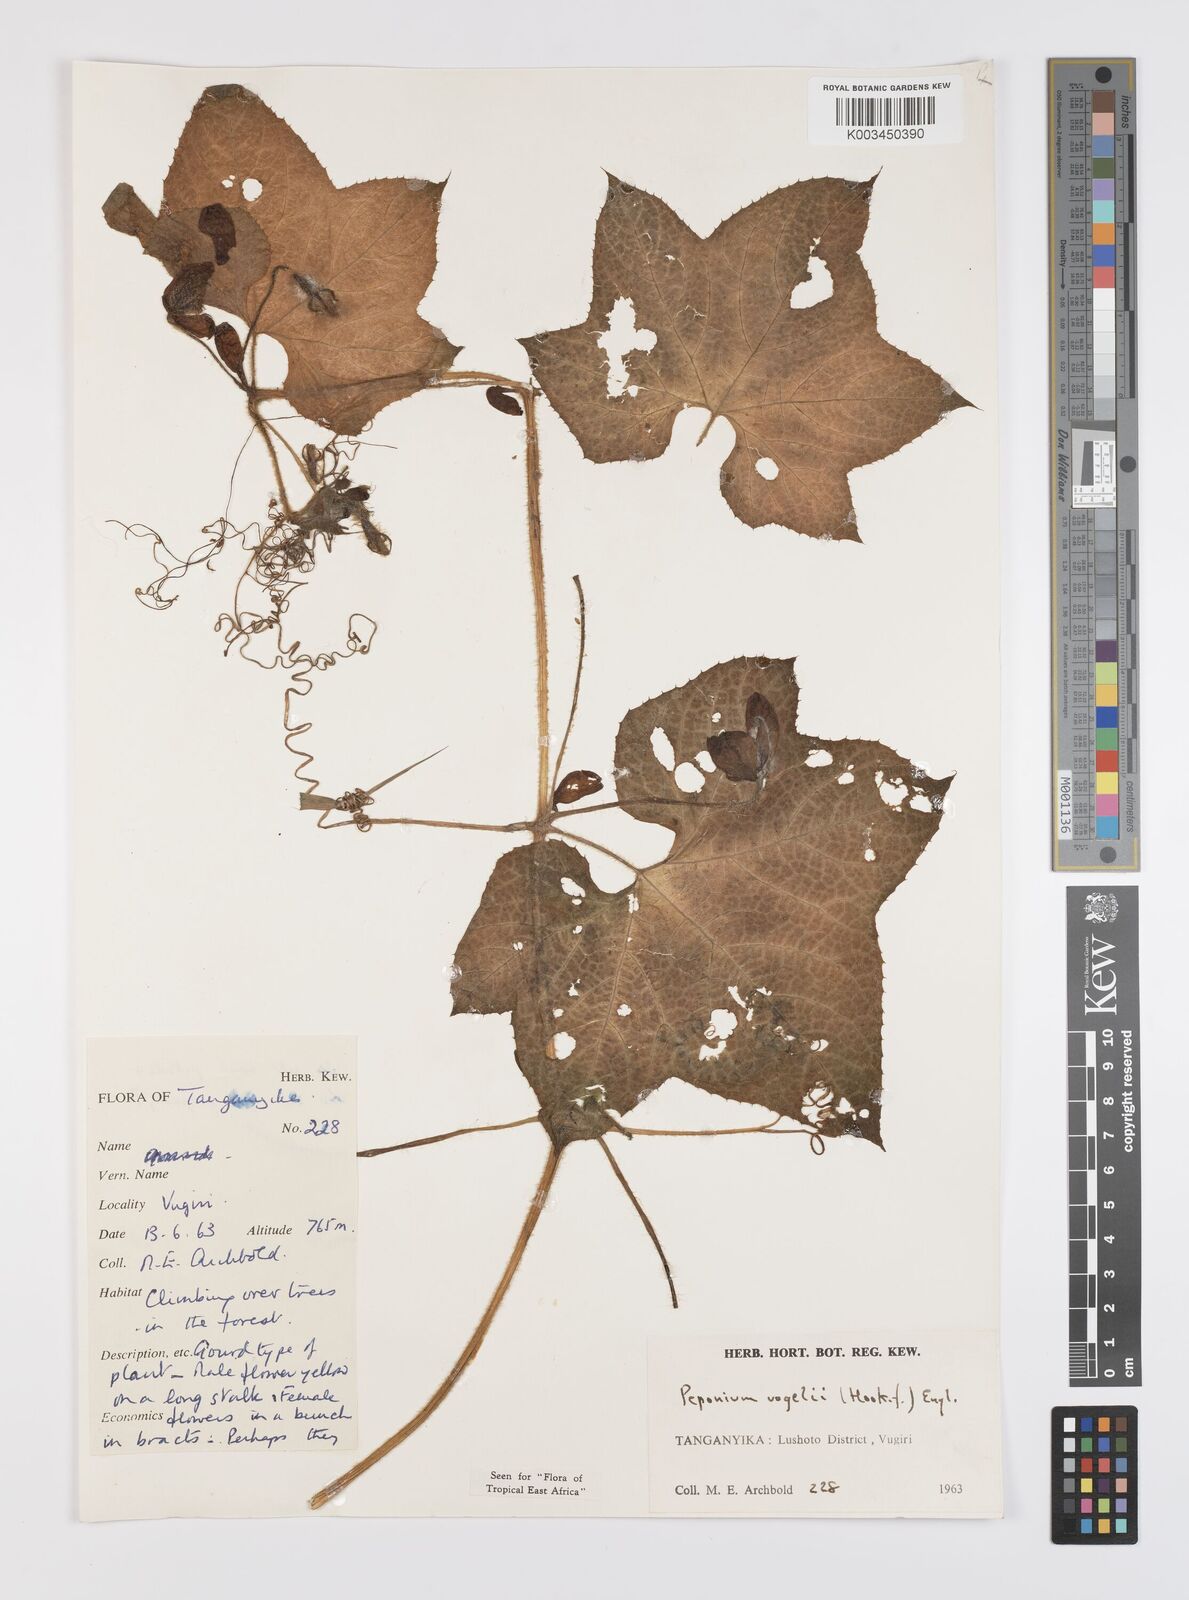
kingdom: Plantae
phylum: Tracheophyta
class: Magnoliopsida
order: Cucurbitales
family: Cucurbitaceae
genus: Peponium
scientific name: Peponium vogelii
